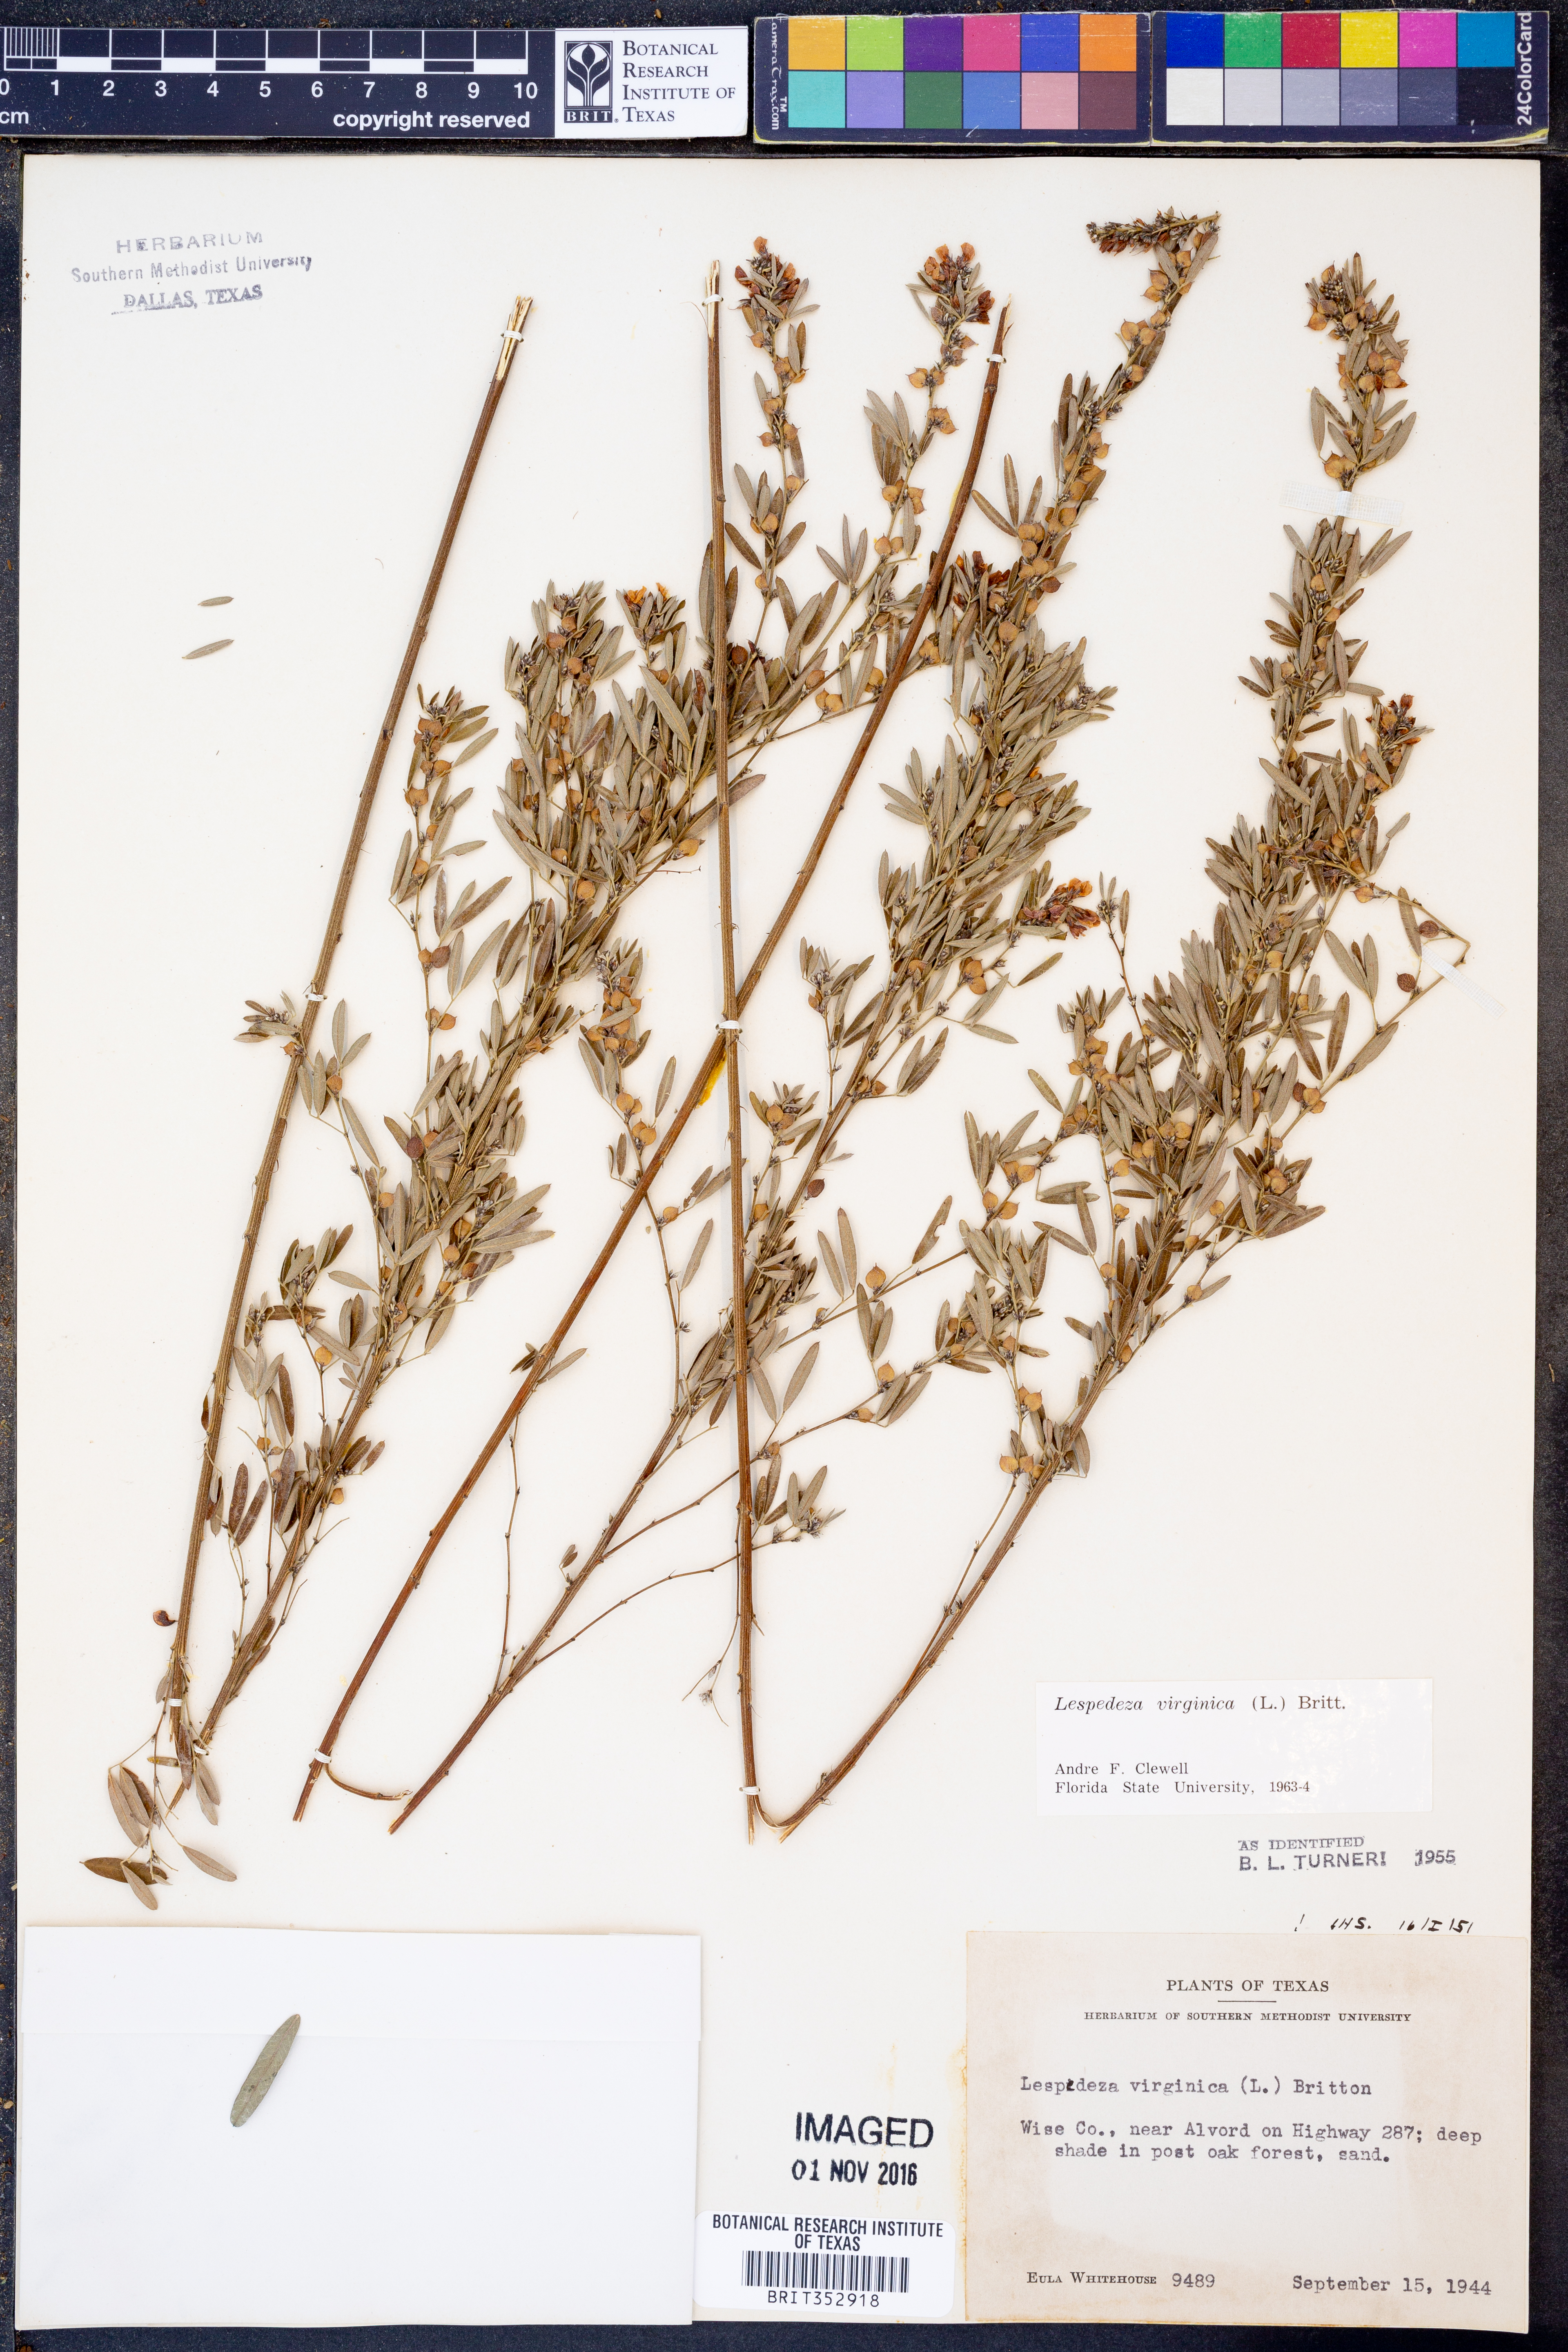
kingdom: Plantae
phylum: Tracheophyta
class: Magnoliopsida
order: Fabales
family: Fabaceae
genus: Lespedeza
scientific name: Lespedeza virginica
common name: Slender bush-clover
